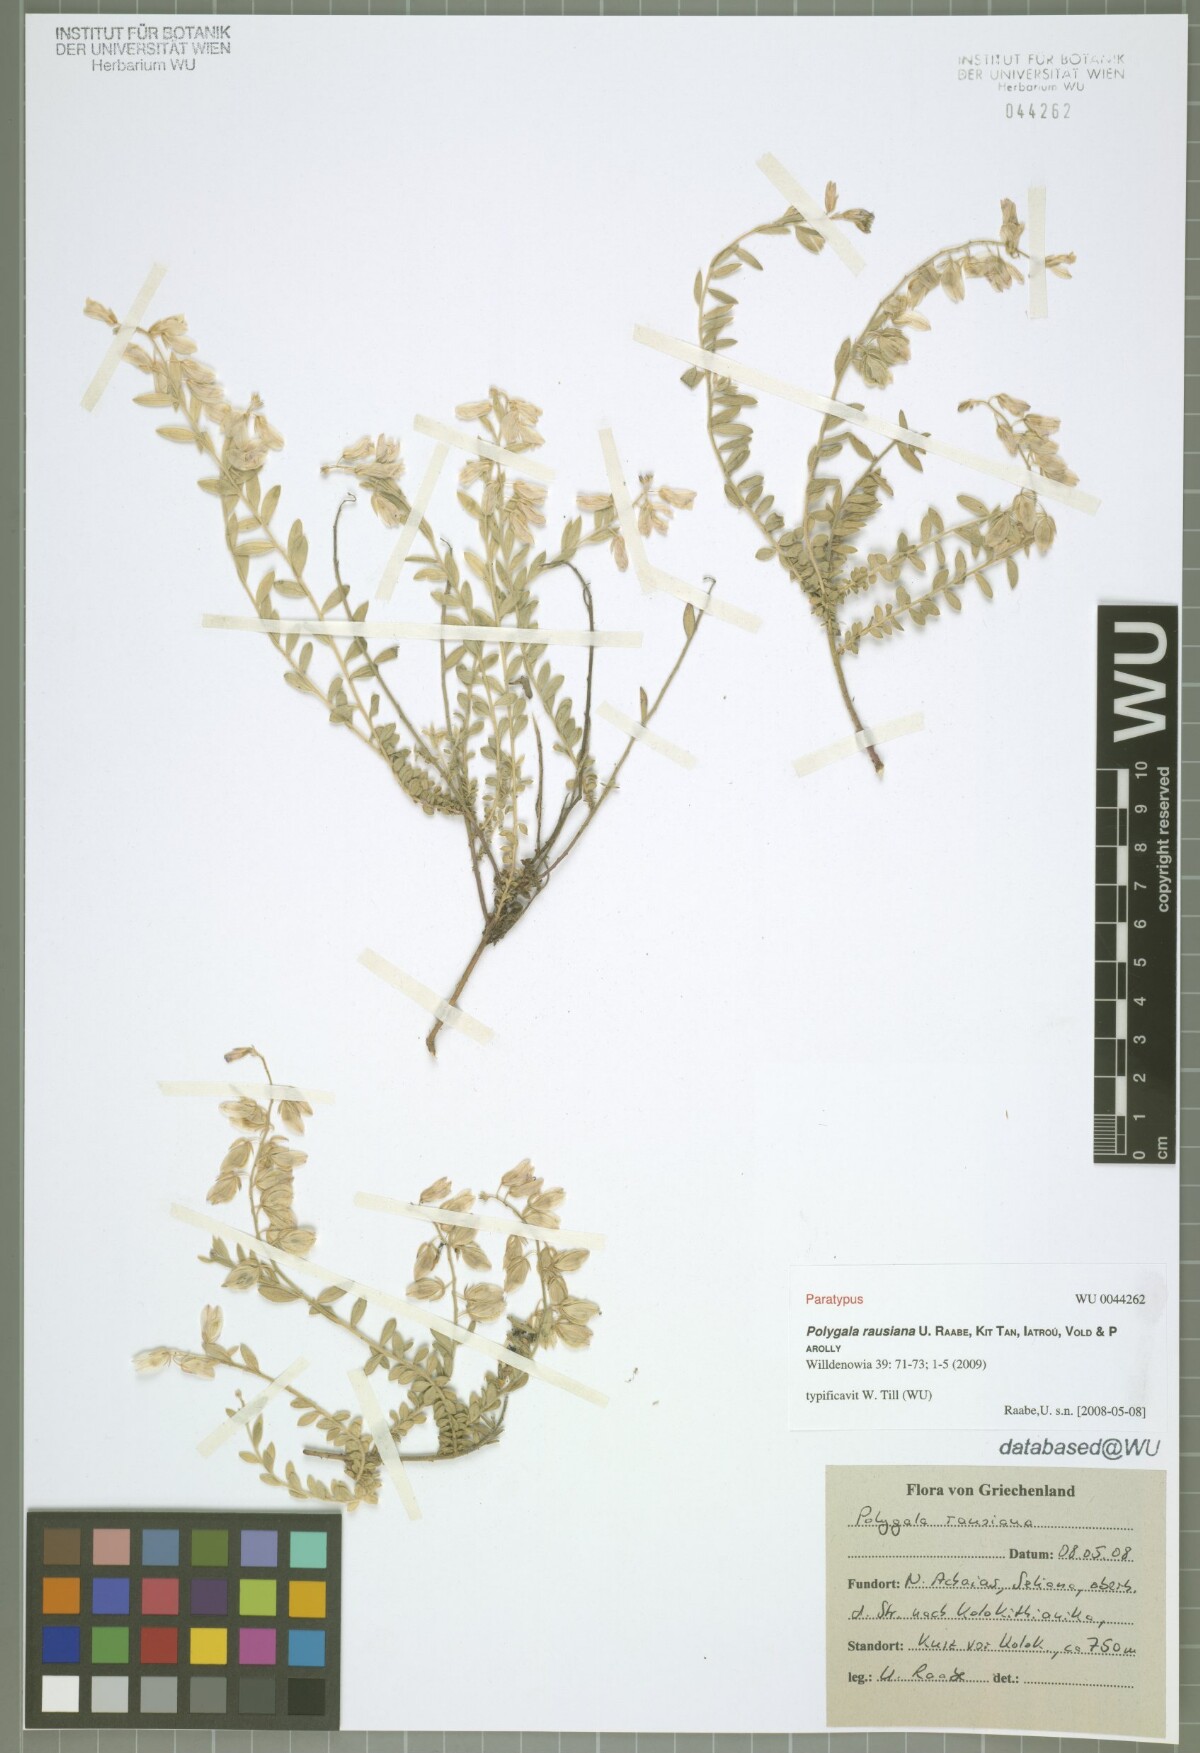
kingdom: Plantae
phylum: Tracheophyta
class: Magnoliopsida
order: Fabales
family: Polygalaceae
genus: Polygala
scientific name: Polygala rausiana
